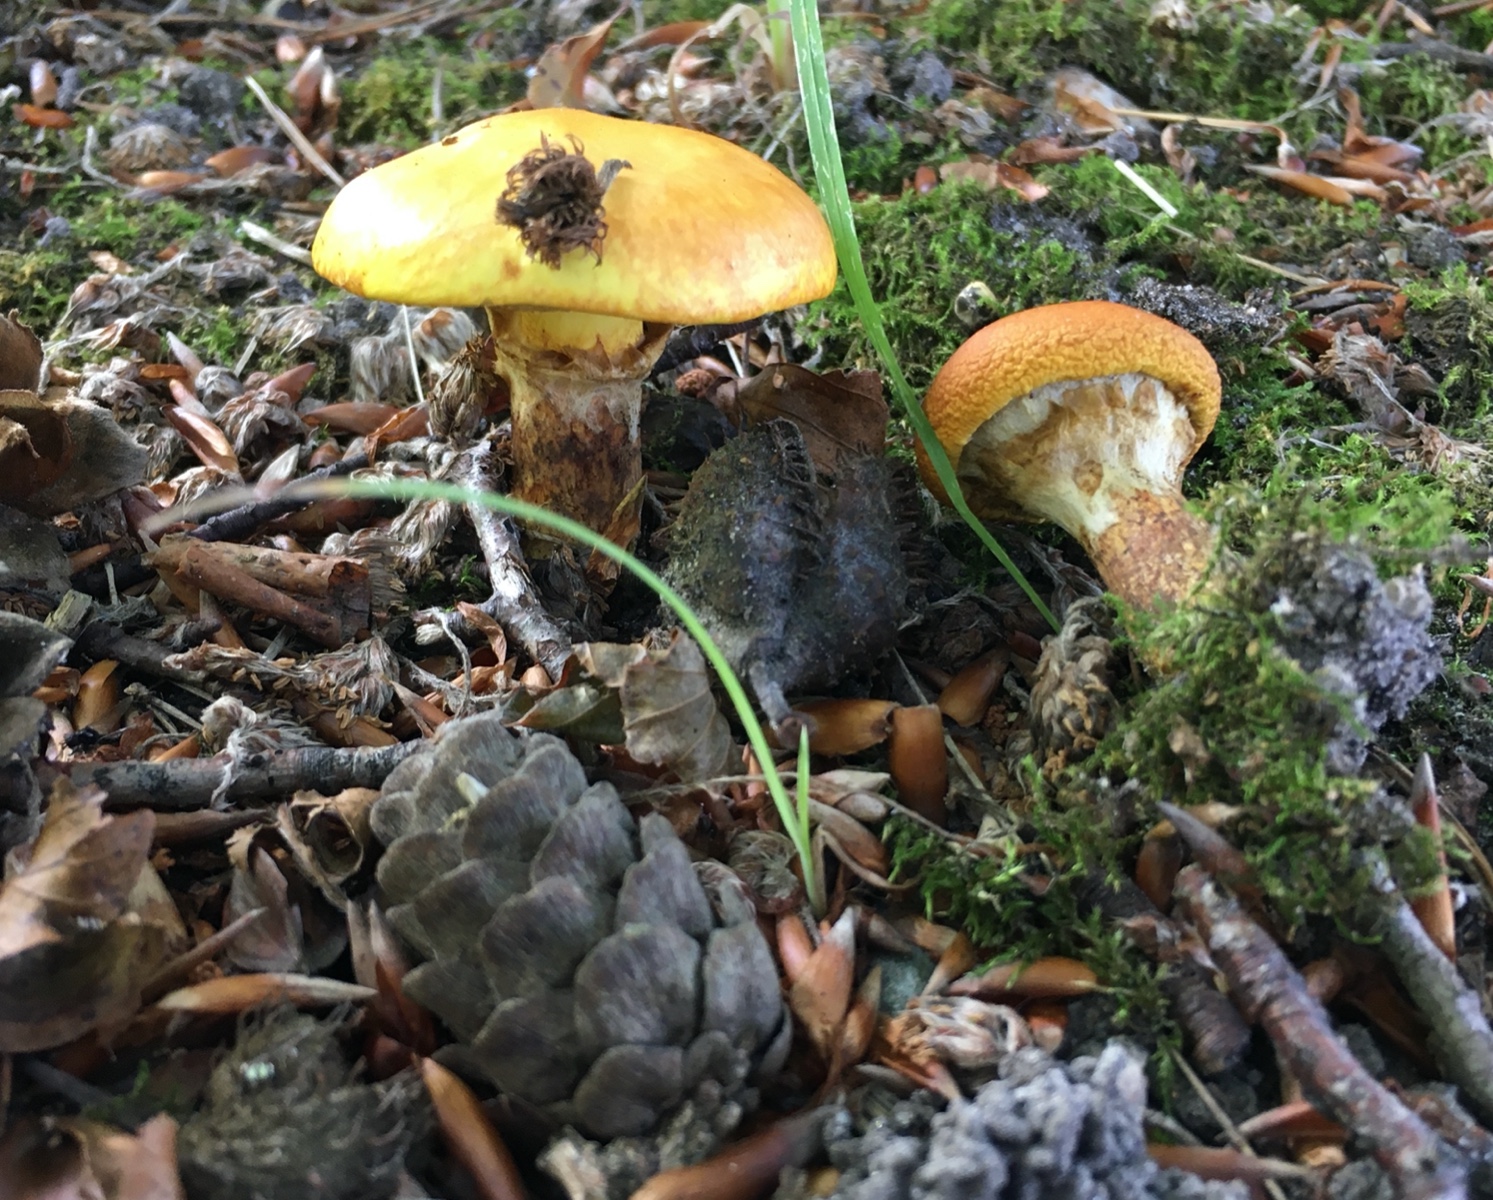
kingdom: Fungi
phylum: Basidiomycota
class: Agaricomycetes
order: Boletales
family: Suillaceae
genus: Suillus
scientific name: Suillus grevillei
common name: lærke-slimrørhat
